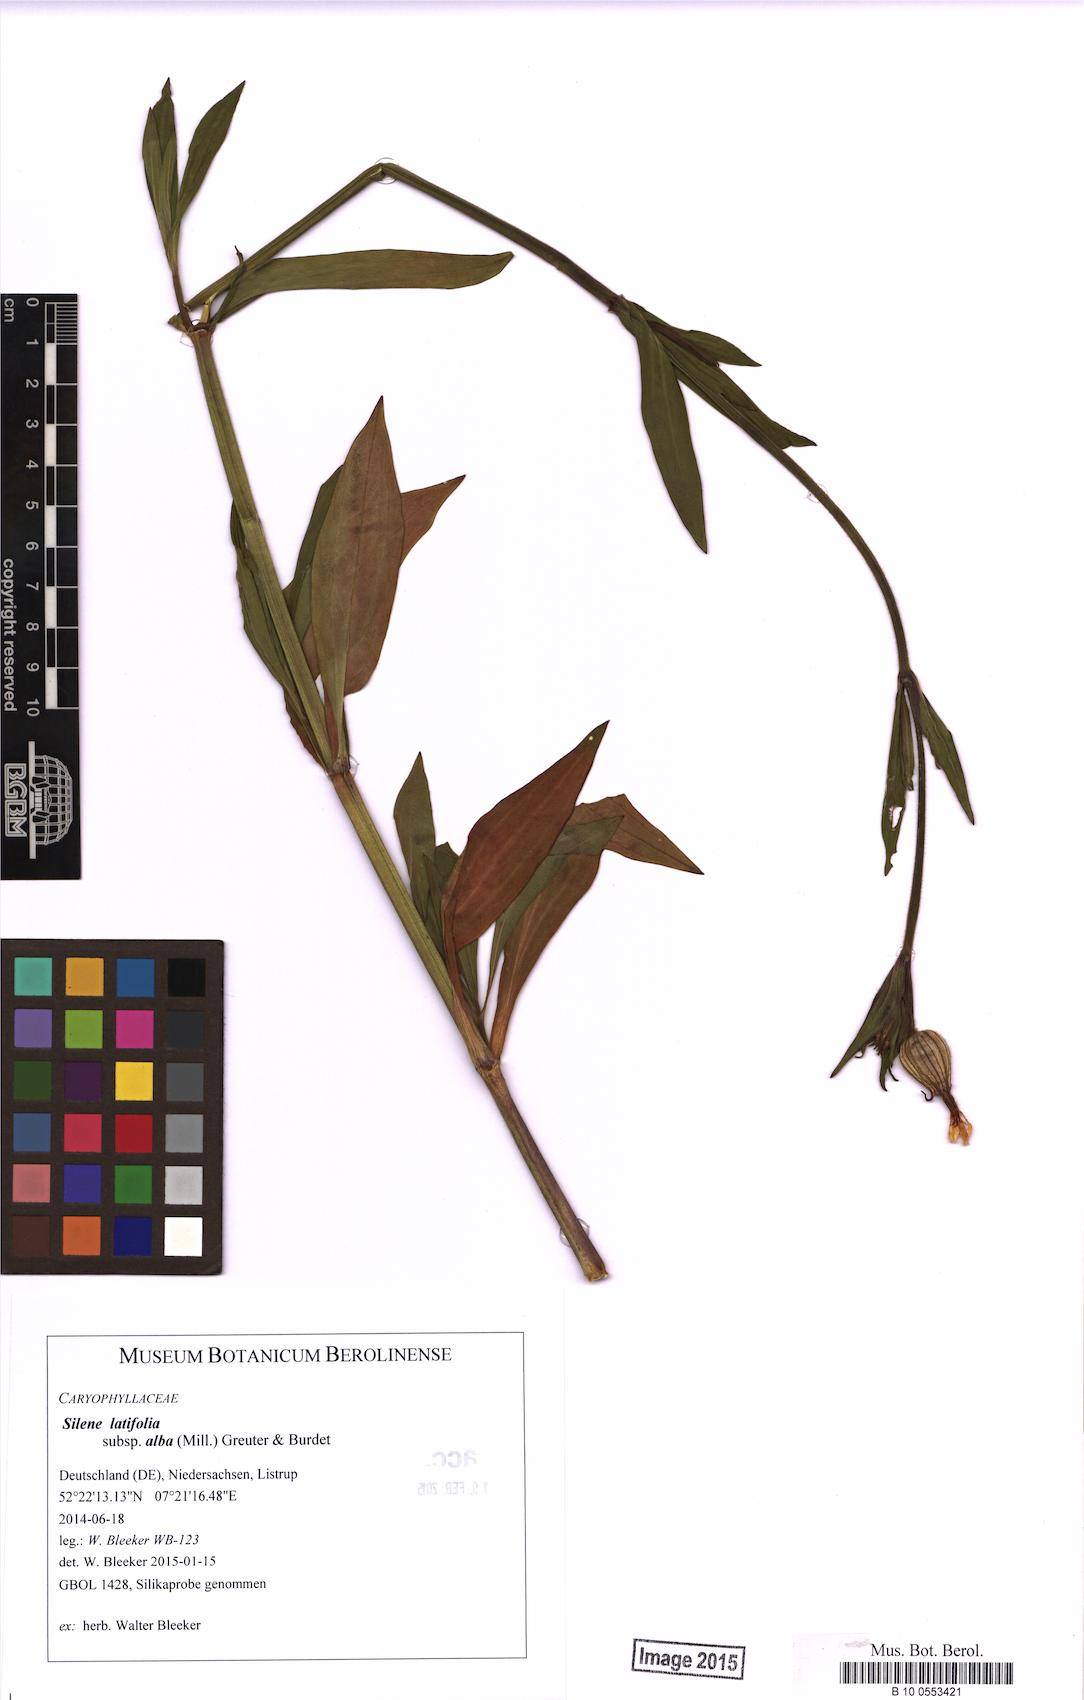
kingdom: Plantae
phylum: Tracheophyta
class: Magnoliopsida
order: Caryophyllales
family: Caryophyllaceae
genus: Silene
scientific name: Silene latifolia
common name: White campion
